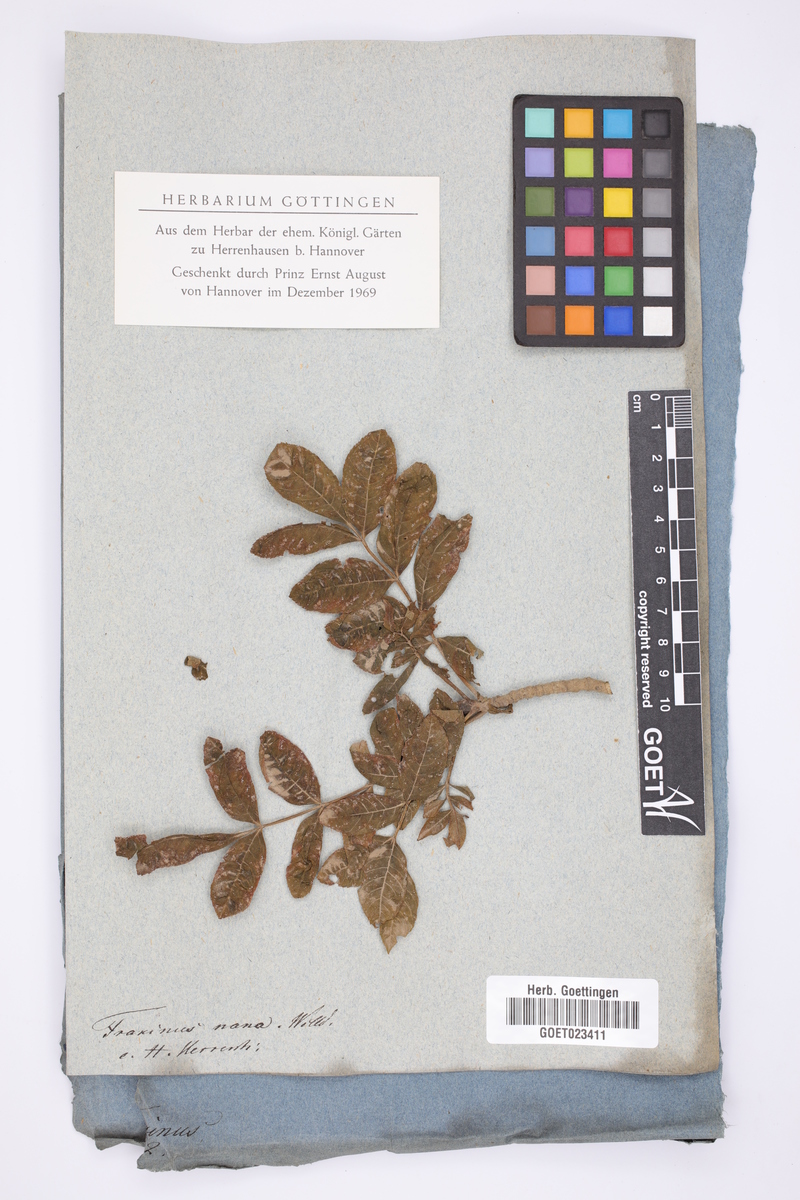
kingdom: Plantae
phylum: Tracheophyta
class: Magnoliopsida
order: Lamiales
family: Oleaceae
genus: Fraxinus
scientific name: Fraxinus excelsior
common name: European ash
